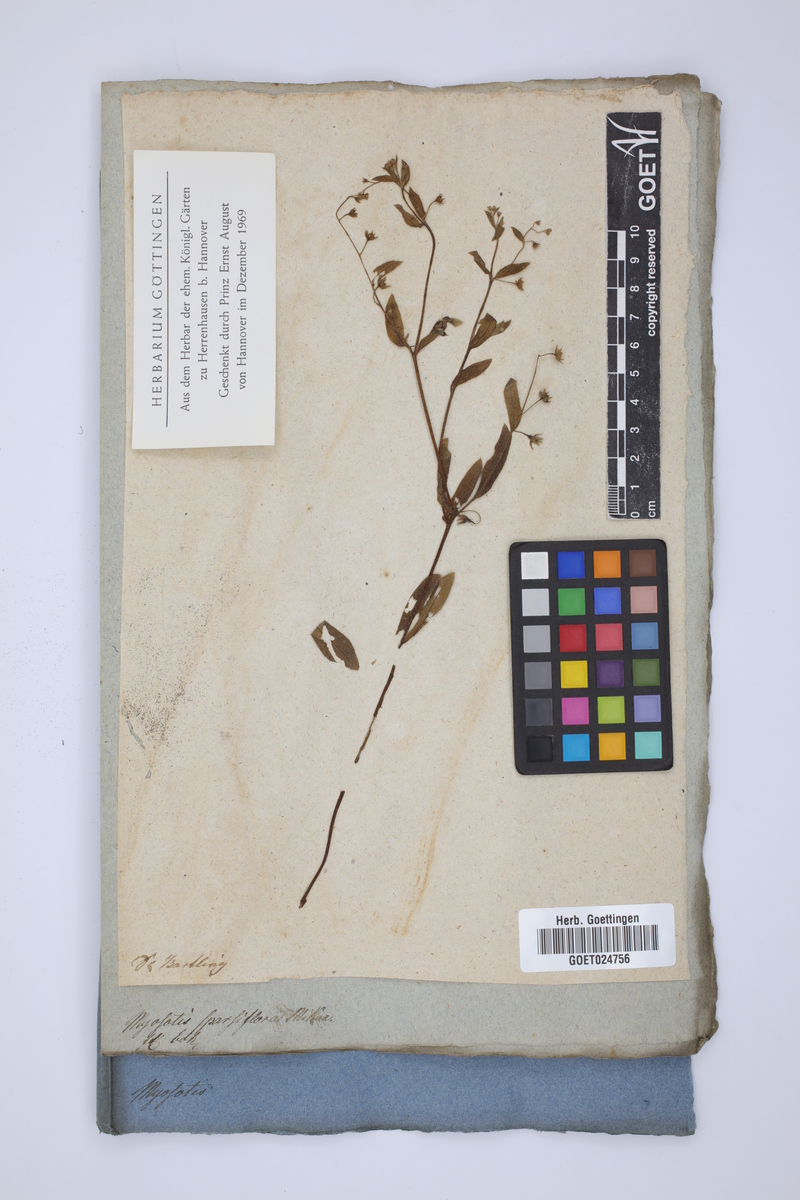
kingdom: Plantae
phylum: Tracheophyta
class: Magnoliopsida
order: Boraginales
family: Boraginaceae
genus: Myosotis
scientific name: Myosotis sparsiflora
